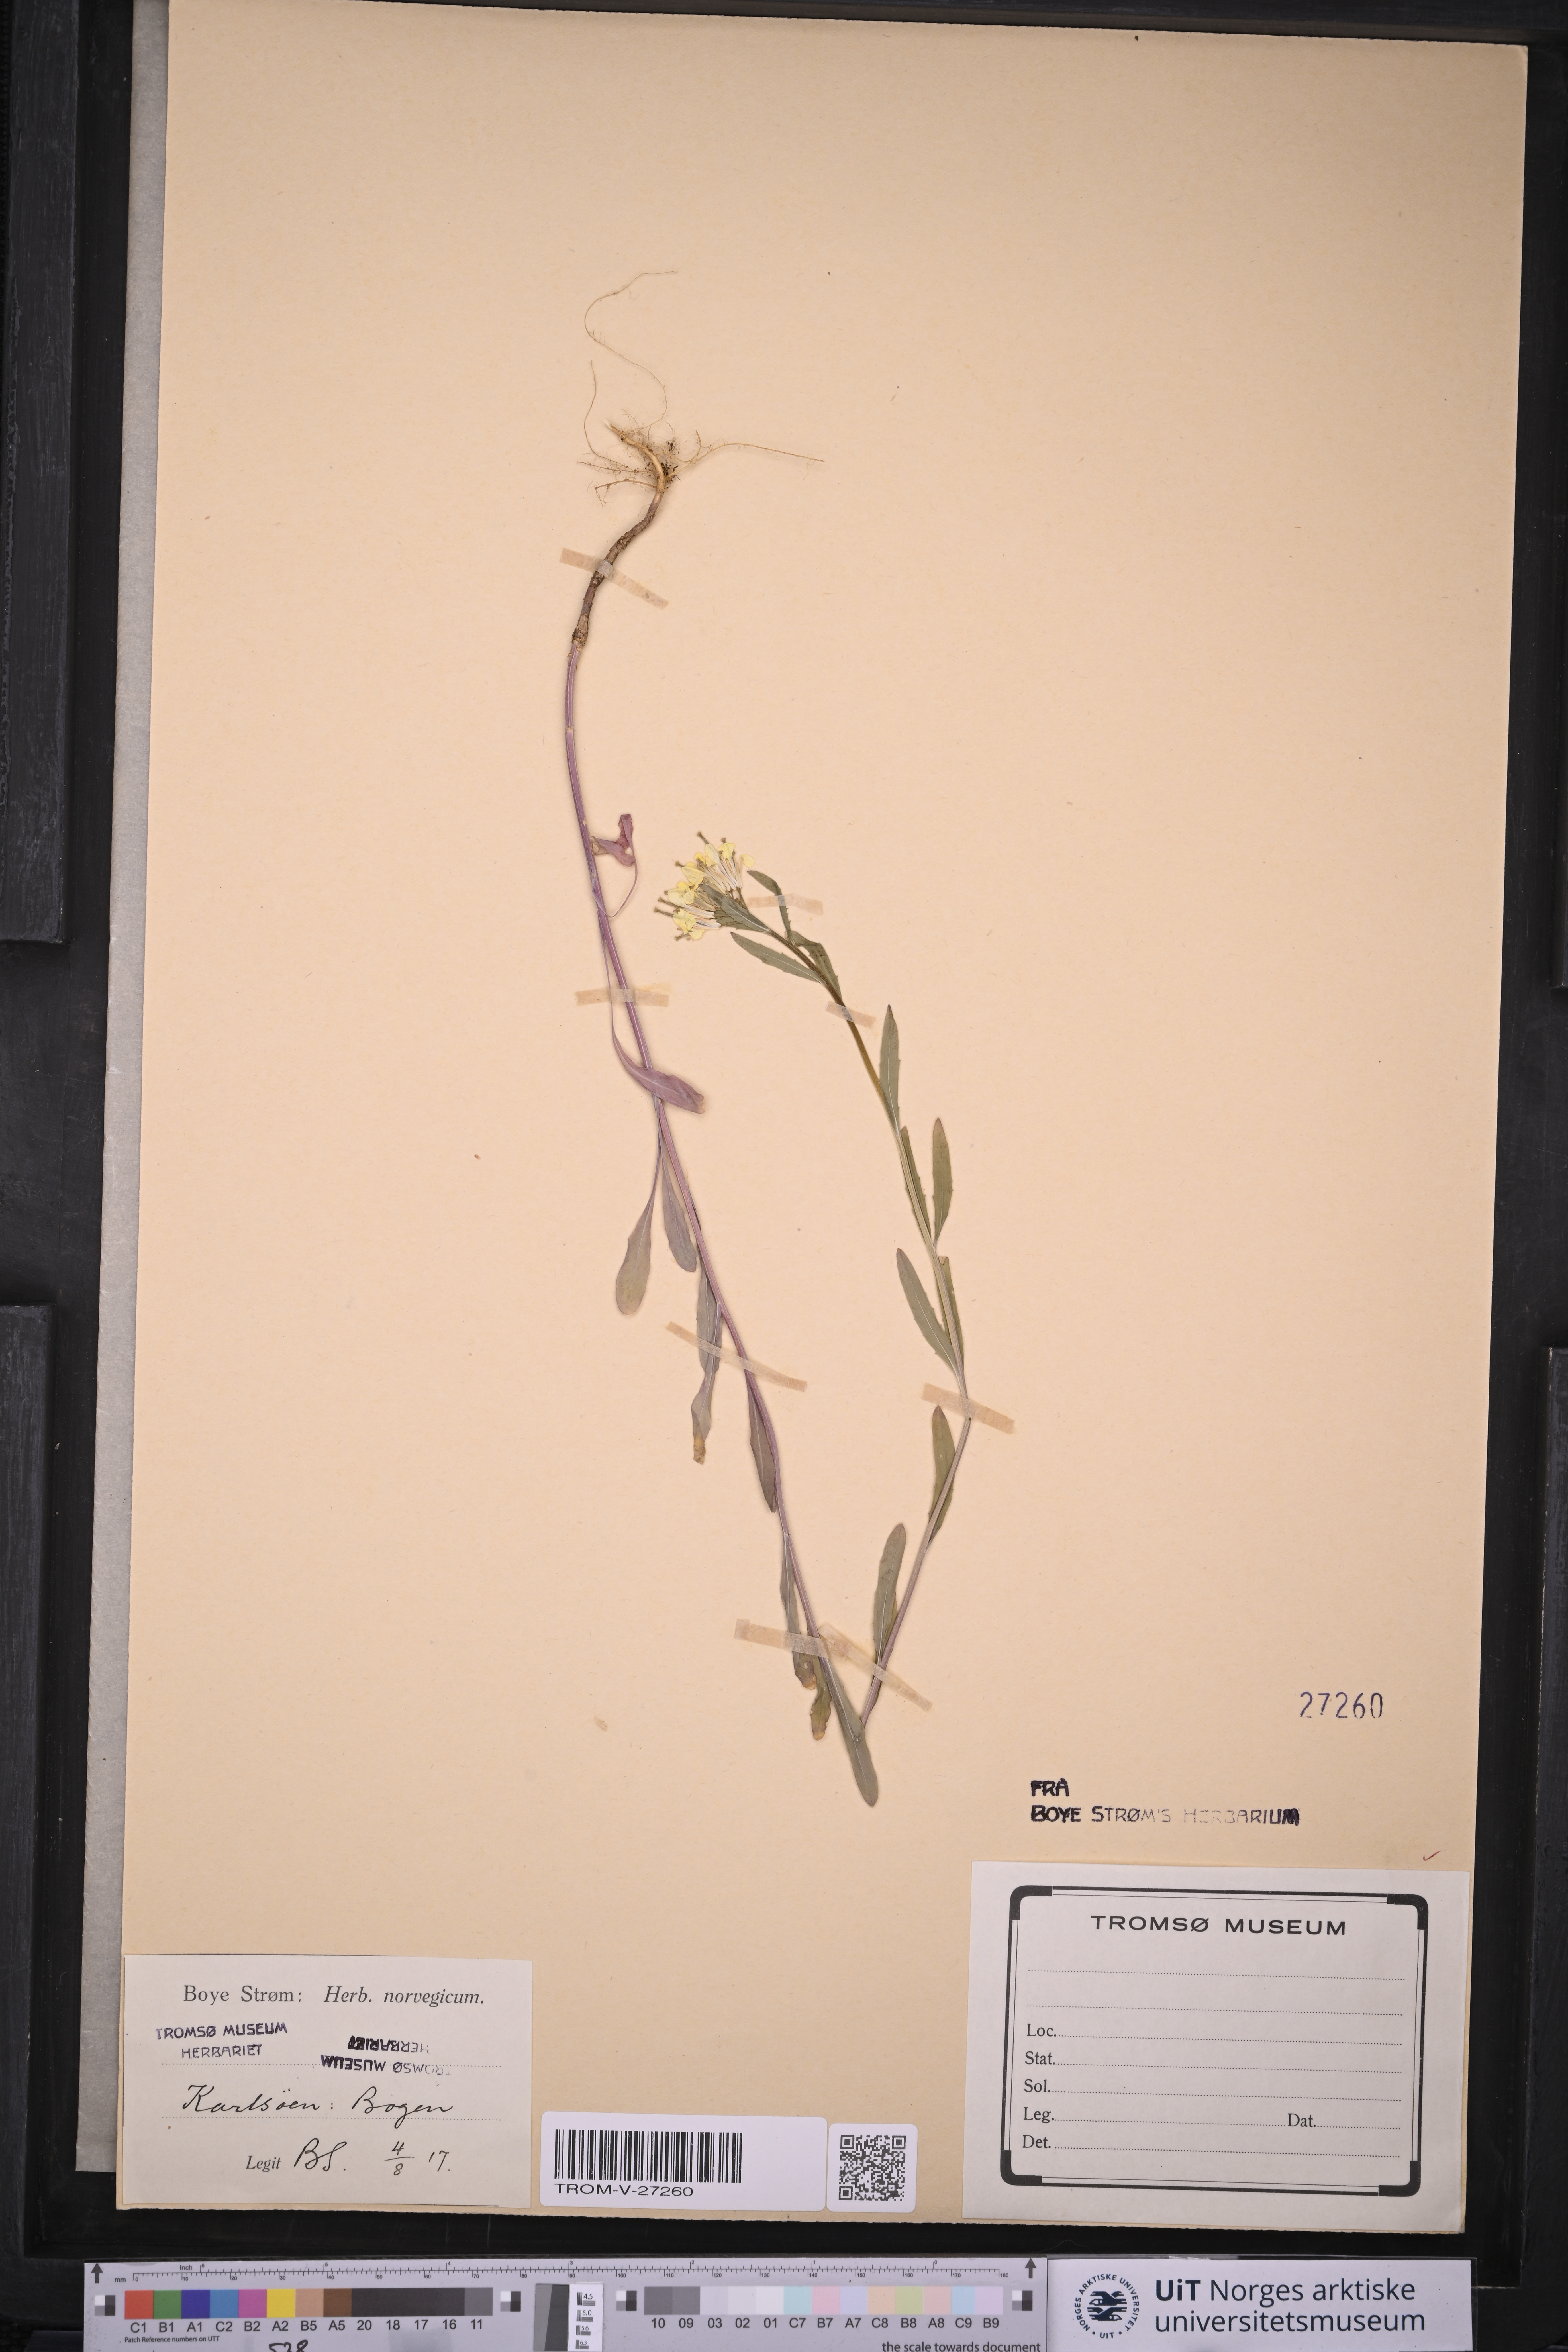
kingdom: Plantae
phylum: Tracheophyta
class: Magnoliopsida
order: Brassicales
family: Brassicaceae
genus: Erysimum
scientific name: Erysimum virgatum
